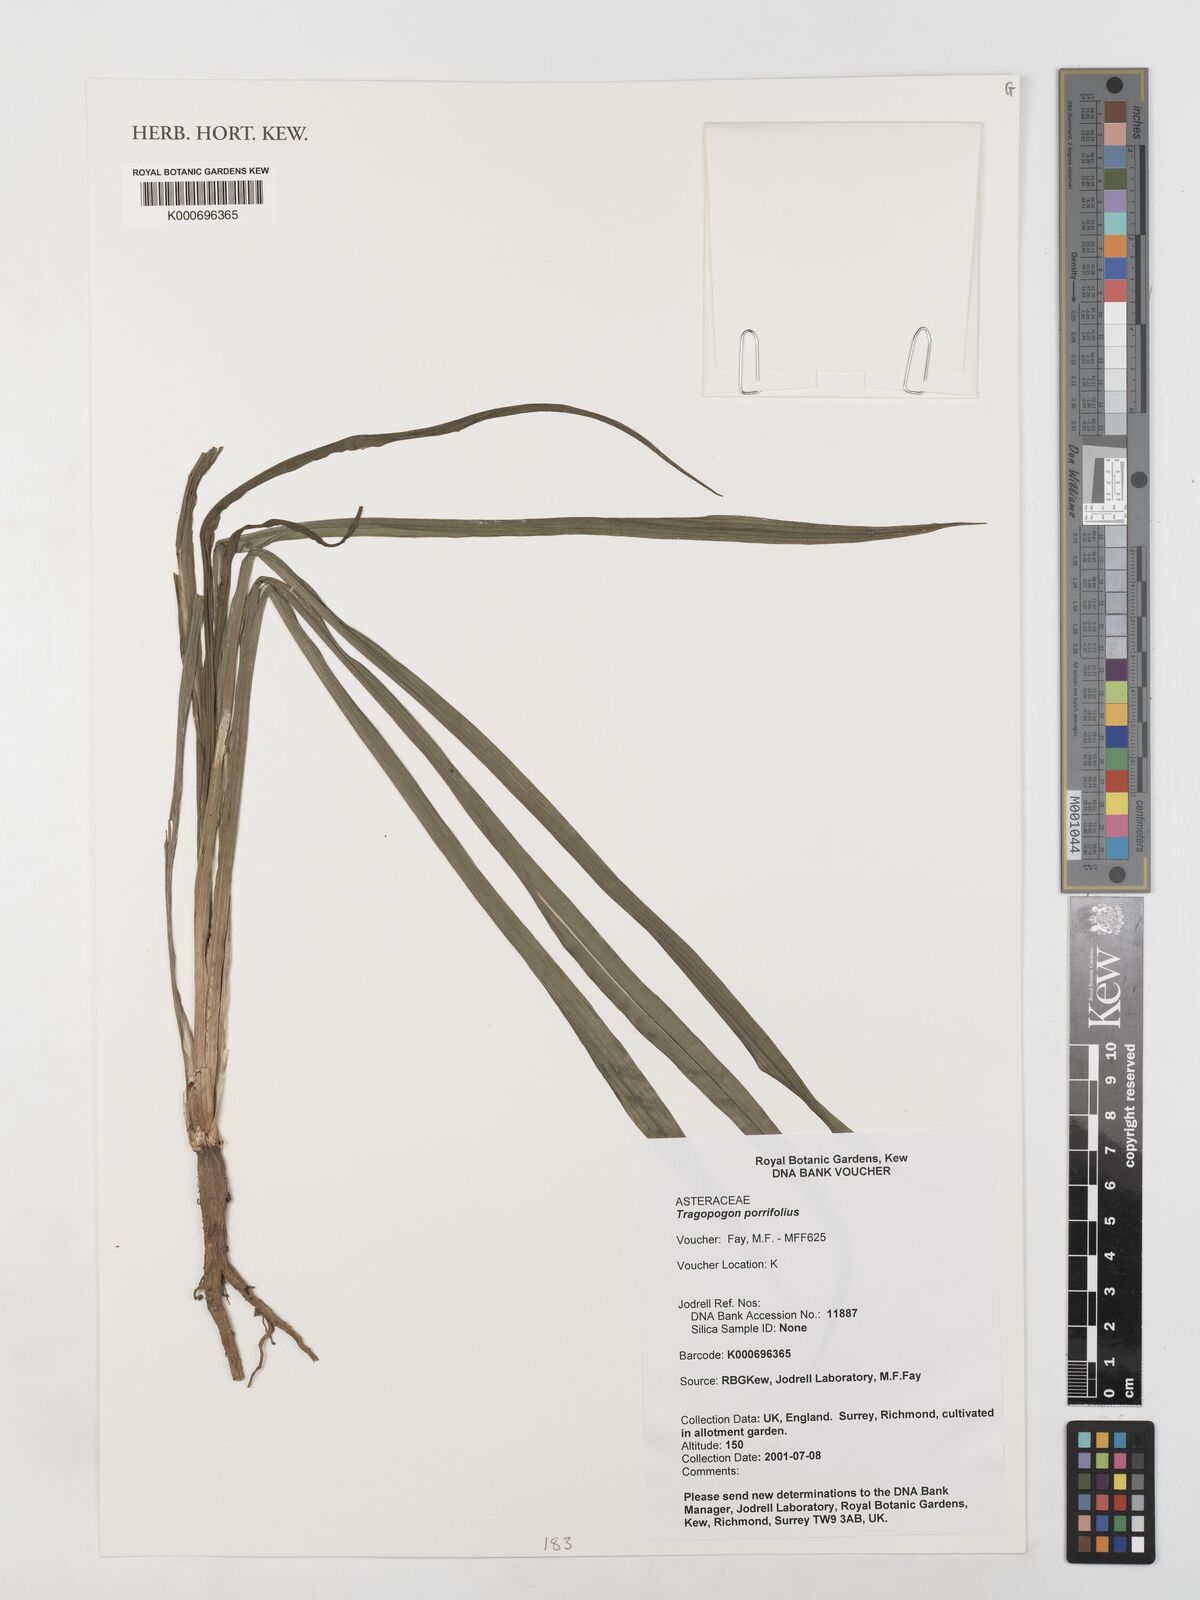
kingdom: Plantae
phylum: Tracheophyta
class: Magnoliopsida
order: Asterales
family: Asteraceae
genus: Tragopogon
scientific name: Tragopogon
